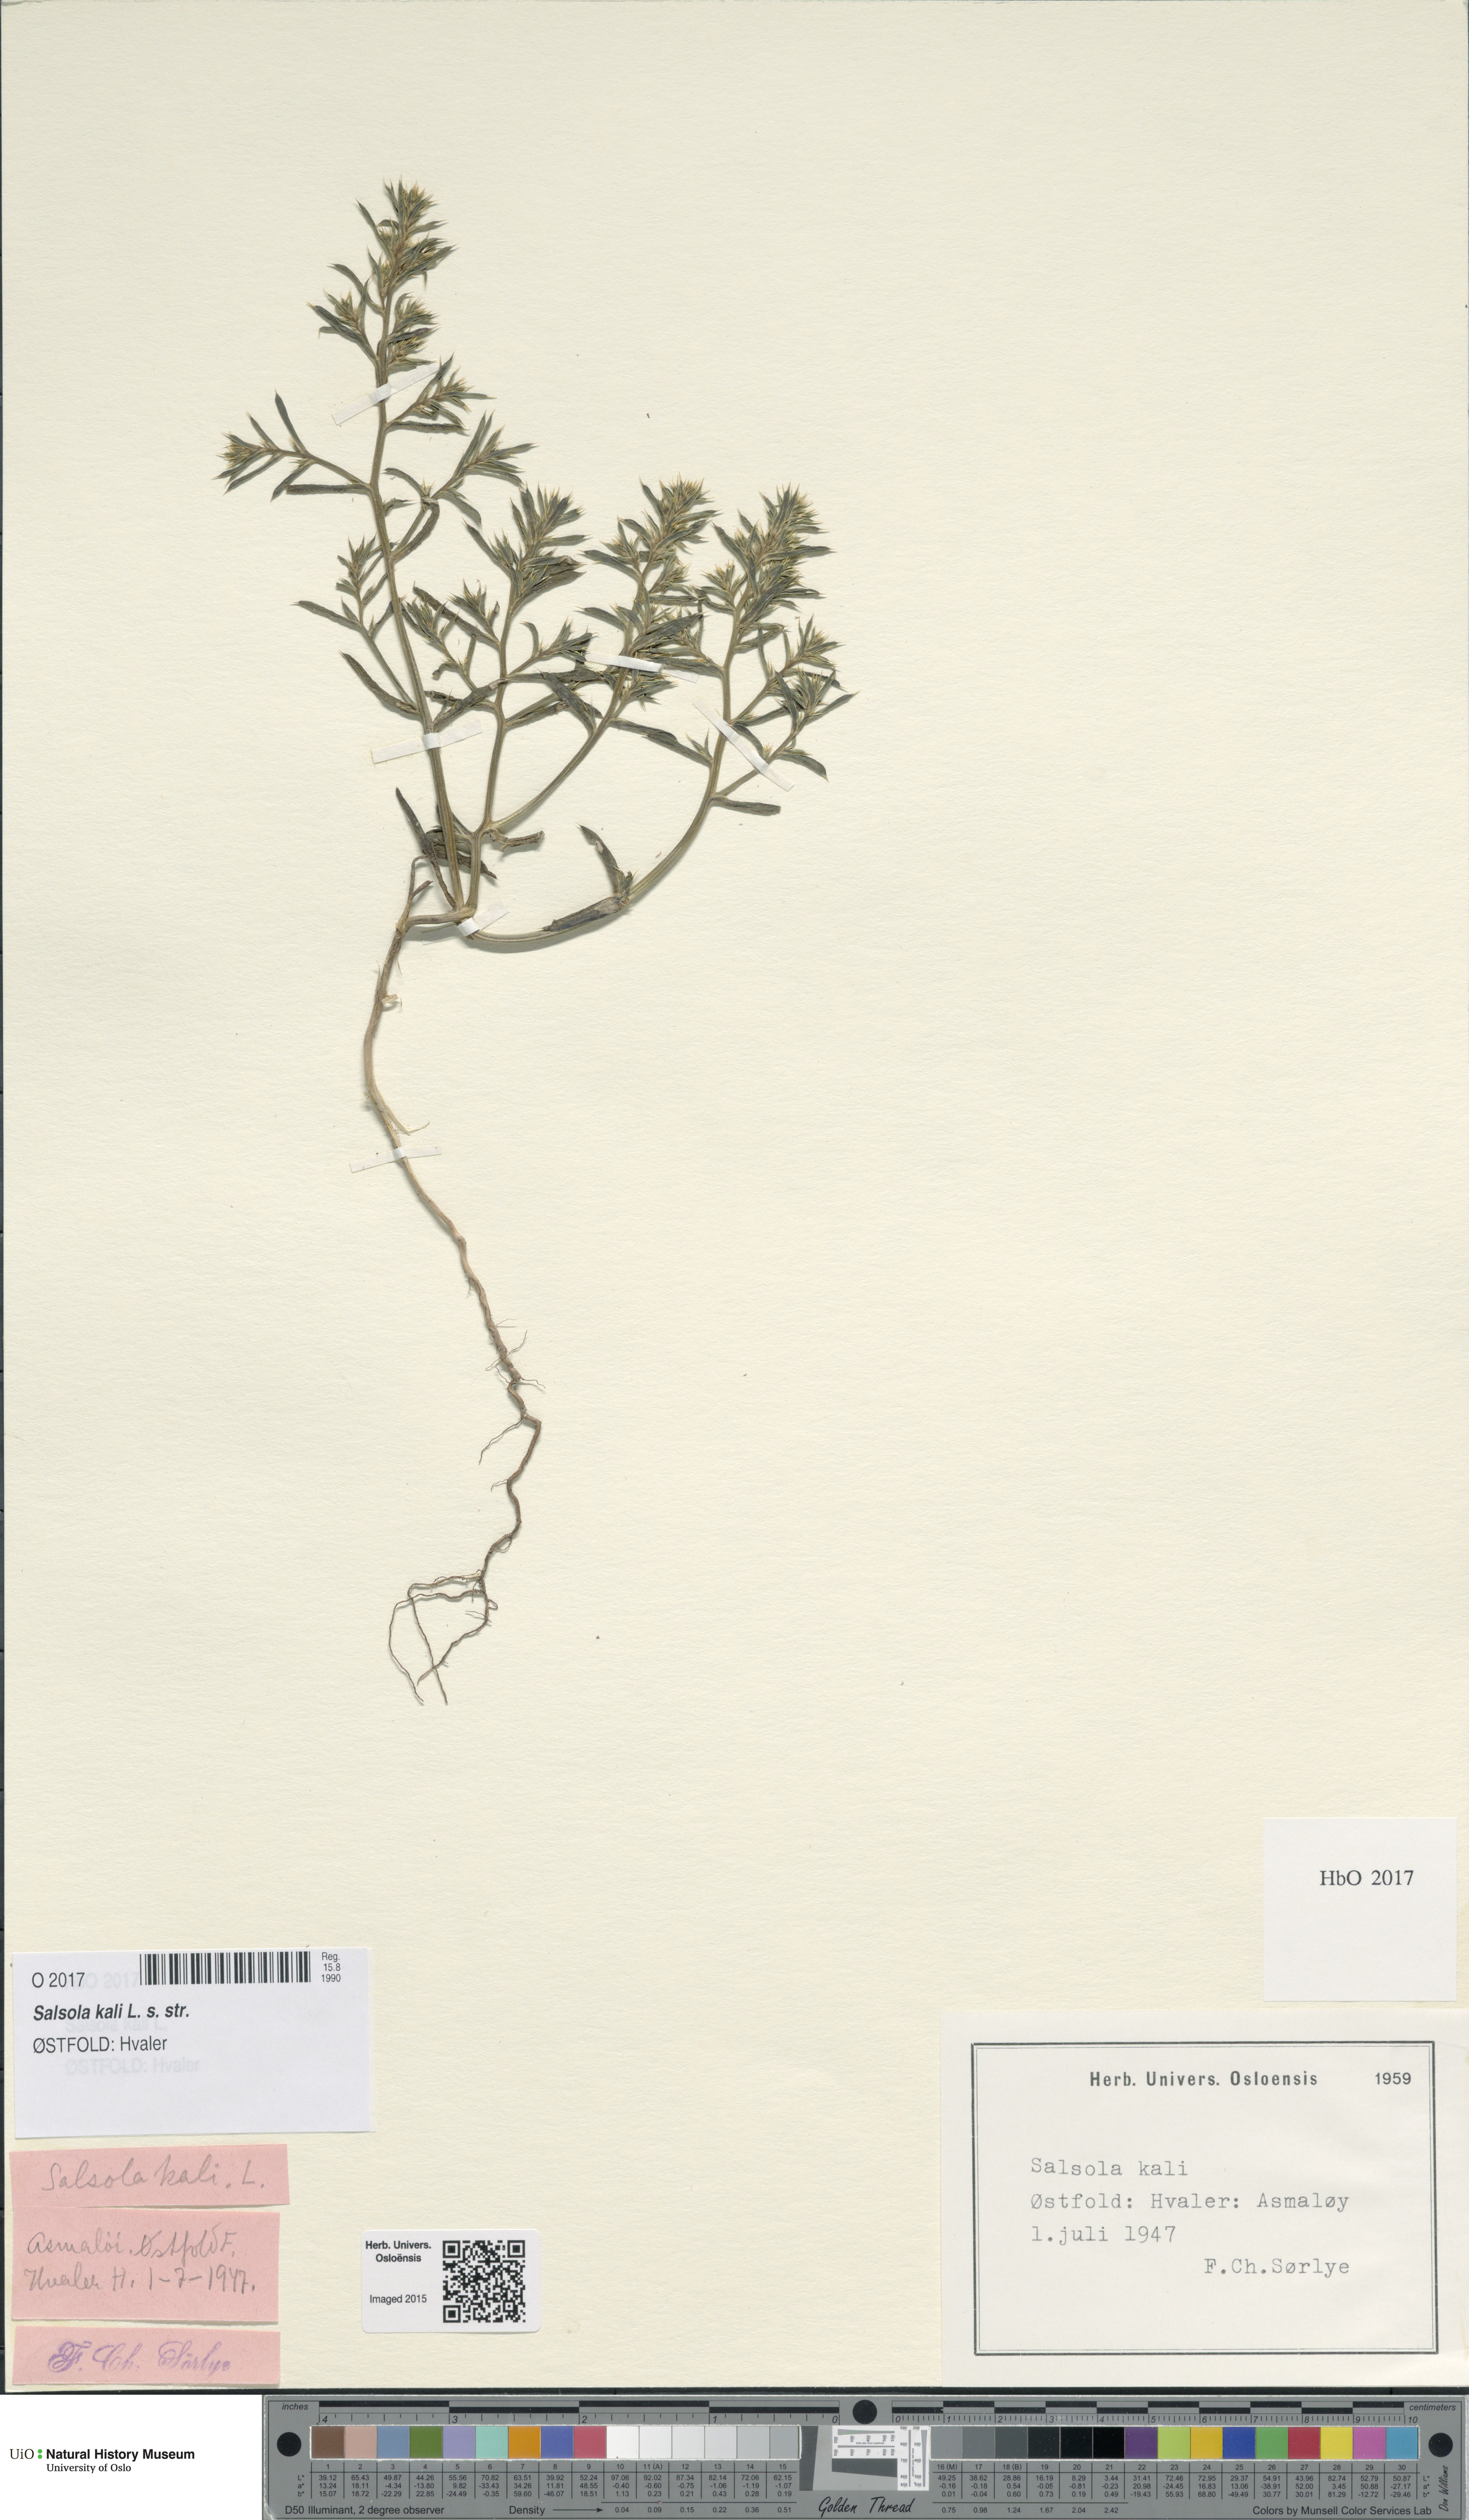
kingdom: Plantae
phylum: Tracheophyta
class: Magnoliopsida
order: Caryophyllales
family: Amaranthaceae
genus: Salsola
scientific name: Salsola kali
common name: Saltwort
